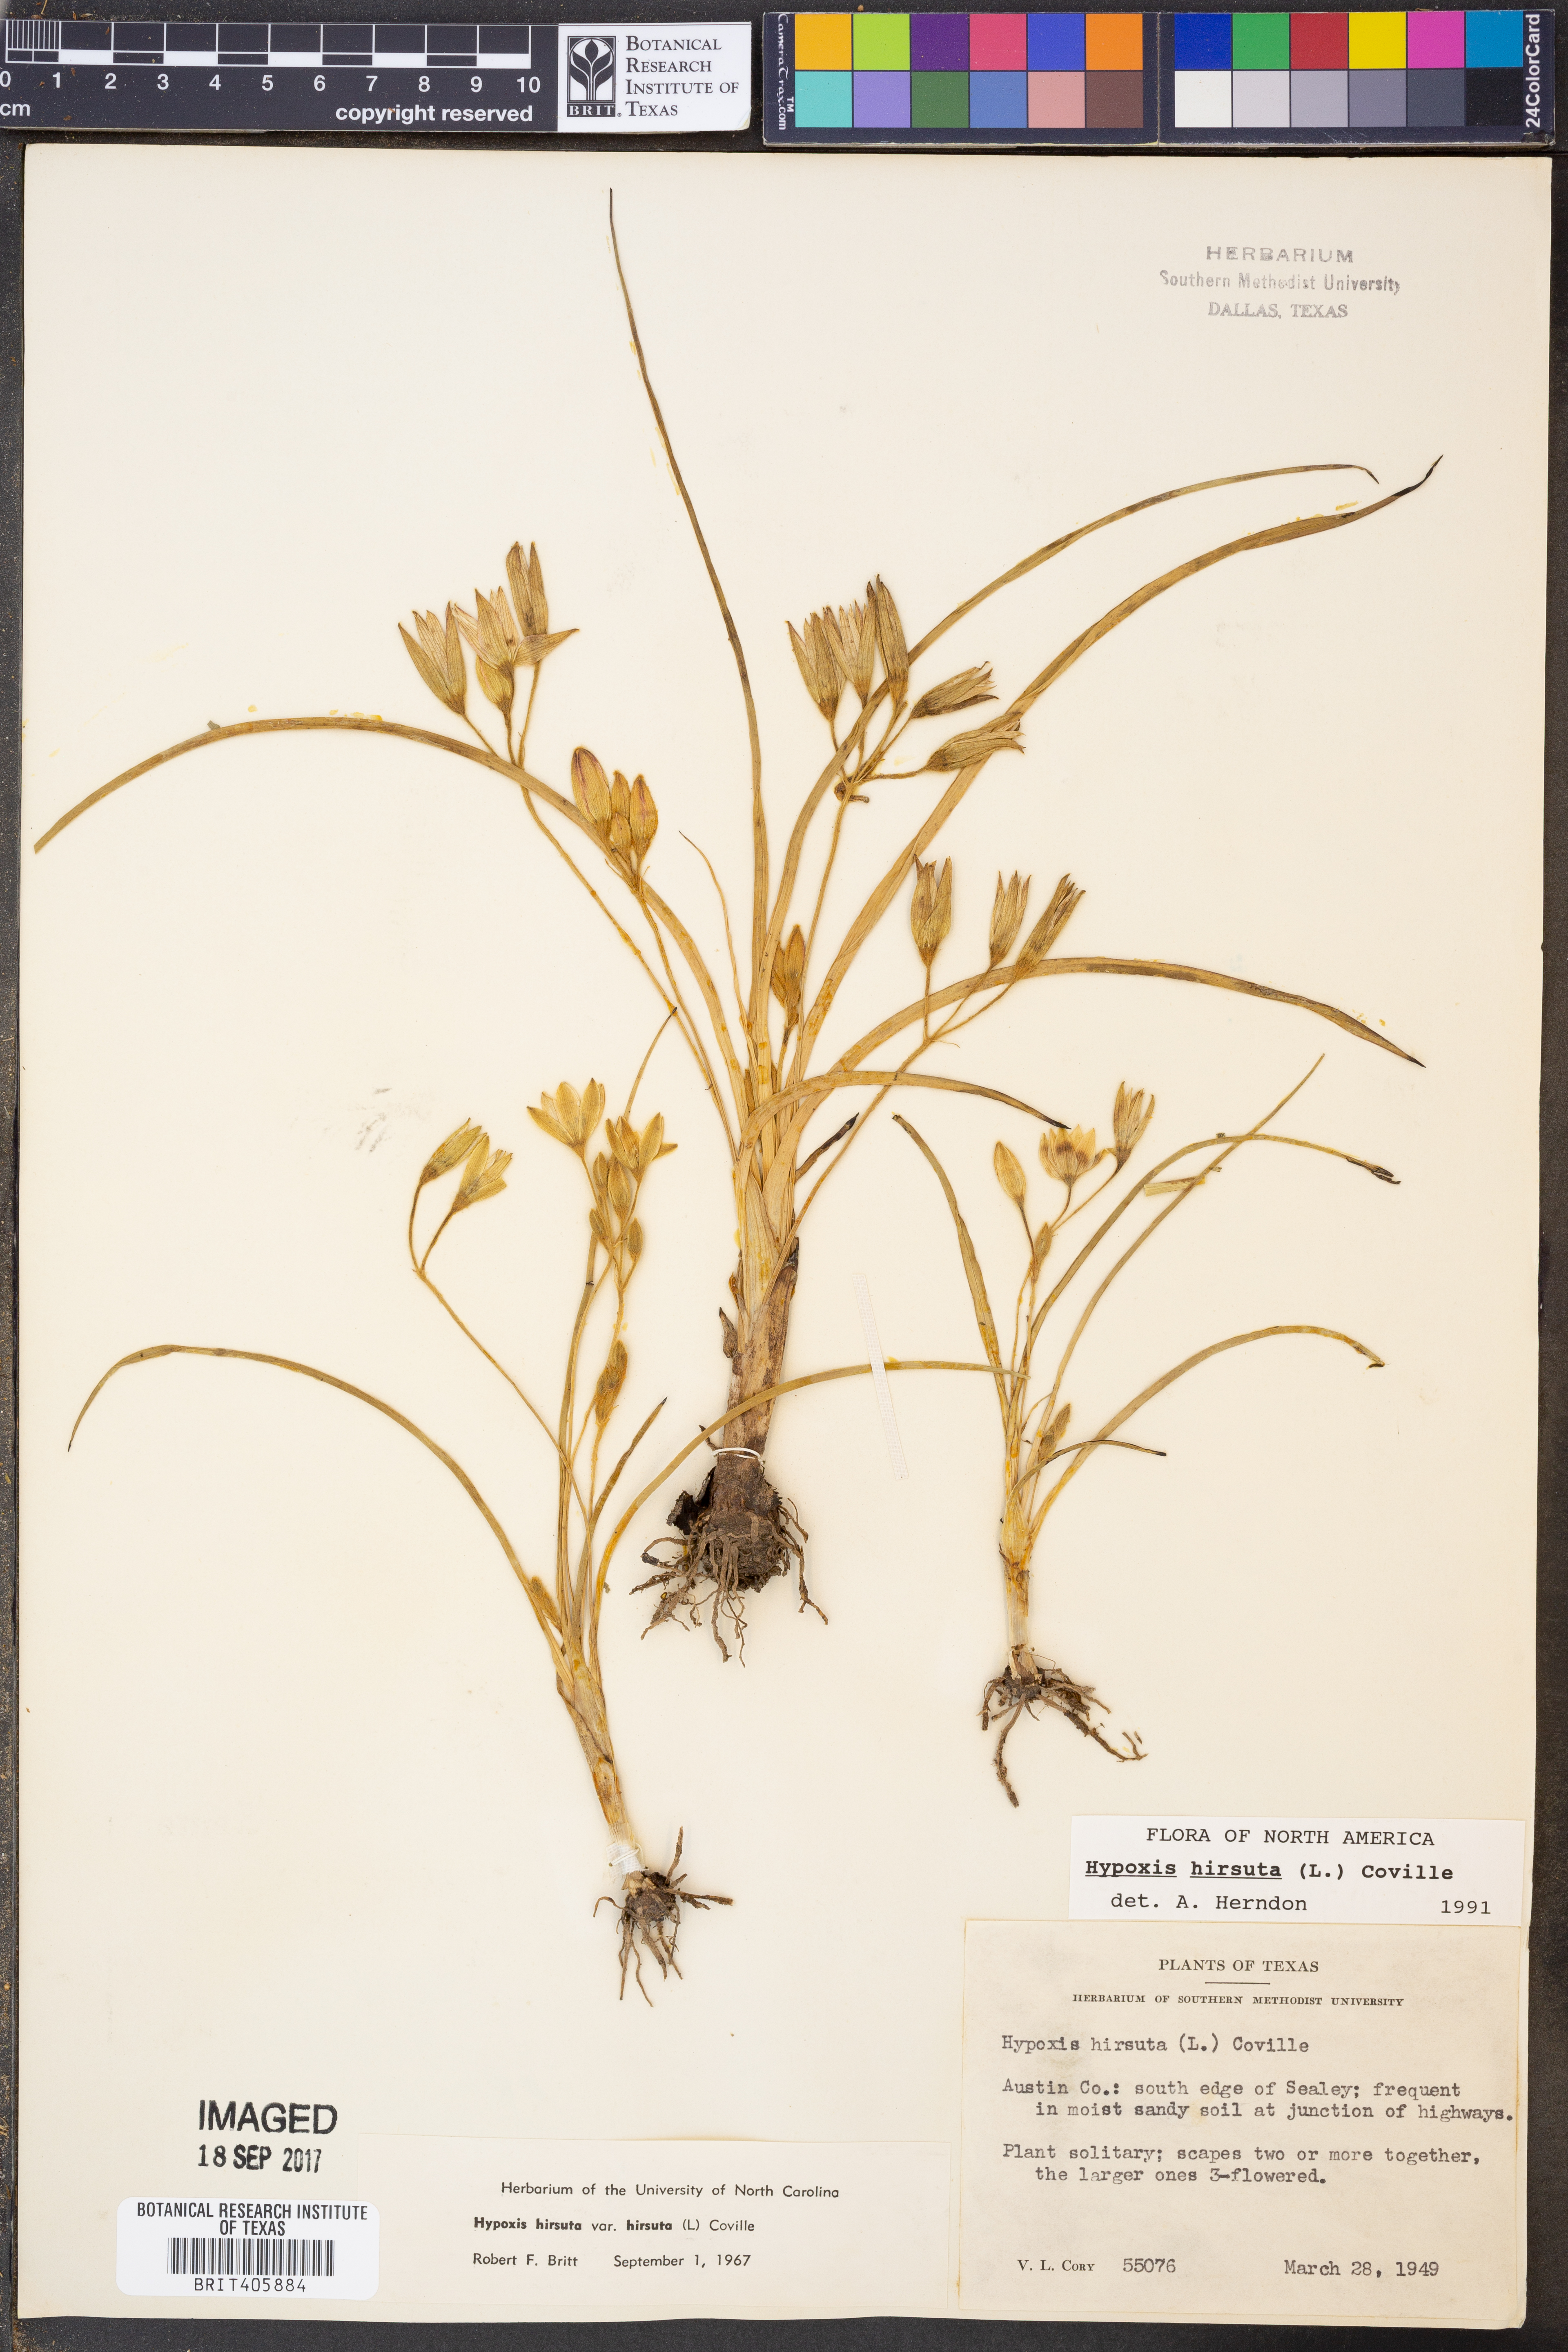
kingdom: Plantae
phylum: Tracheophyta
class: Liliopsida
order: Asparagales
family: Hypoxidaceae
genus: Hypoxis
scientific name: Hypoxis hirsuta
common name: Common goldstar
